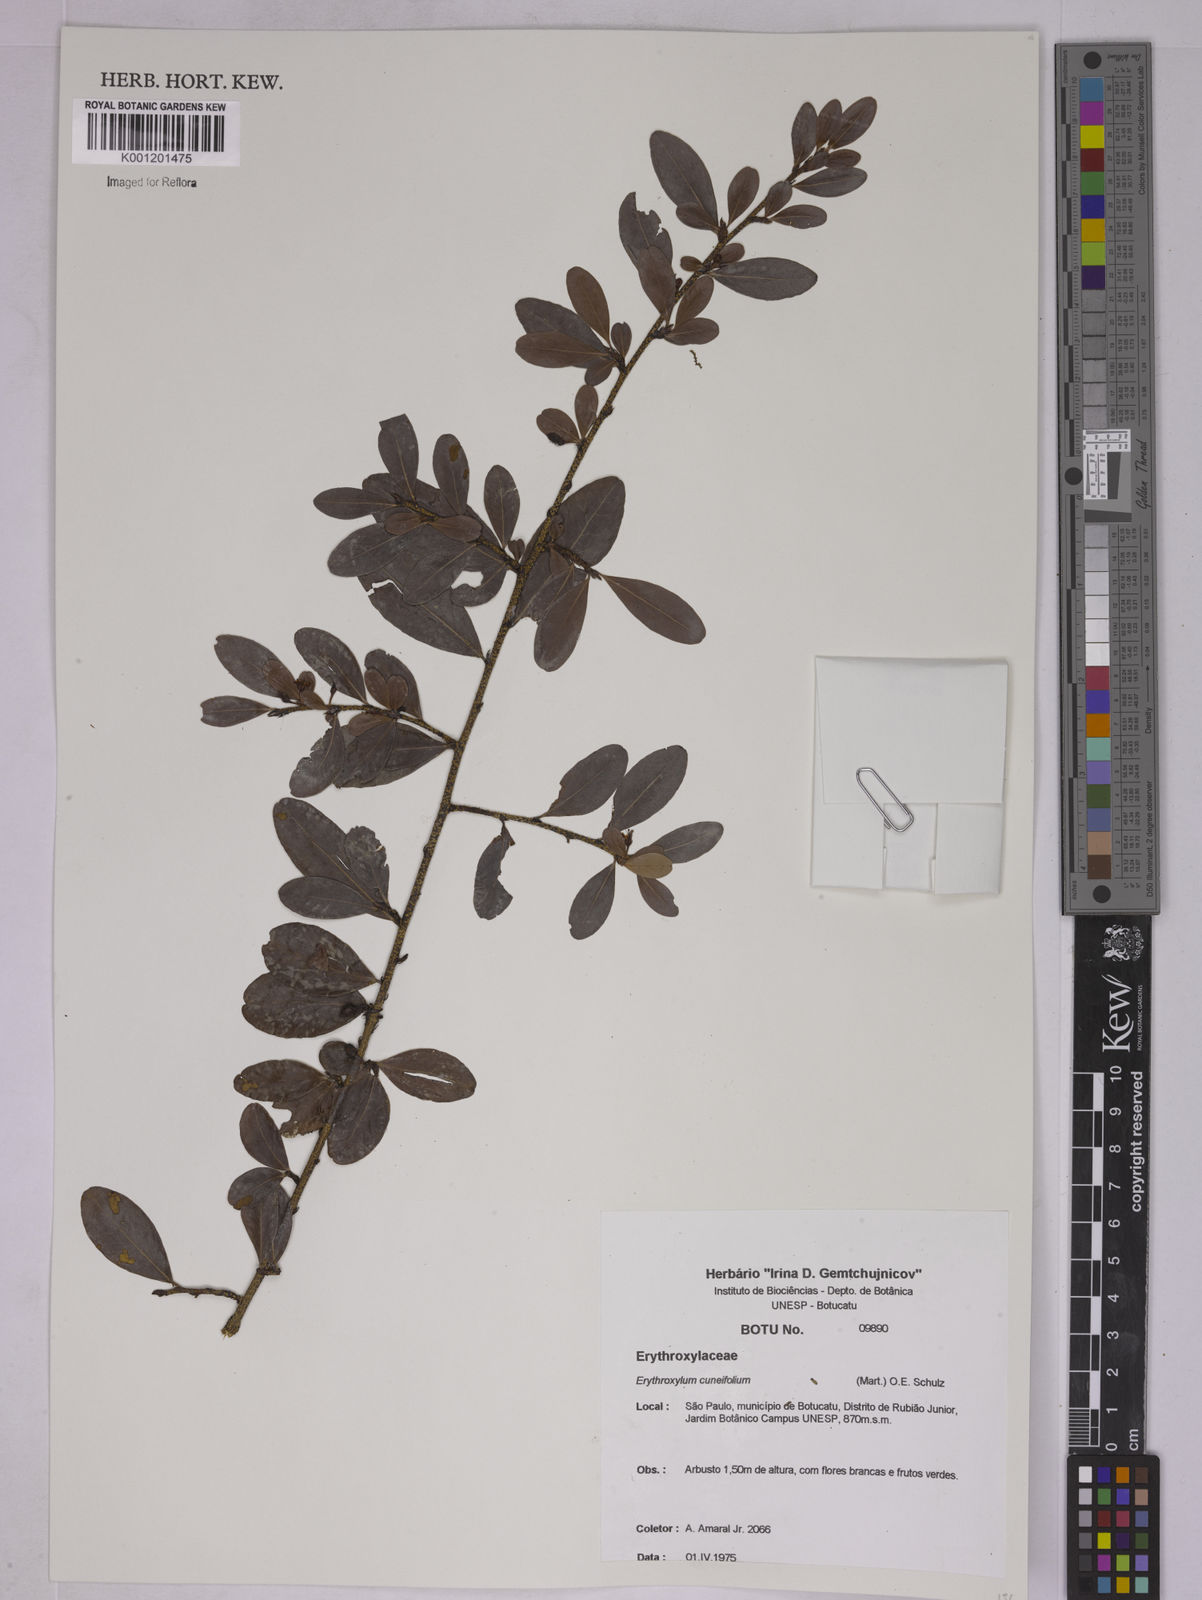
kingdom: Plantae
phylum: Tracheophyta
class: Magnoliopsida
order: Malpighiales
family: Erythroxylaceae
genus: Erythroxylum
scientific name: Erythroxylum cuneifolium
